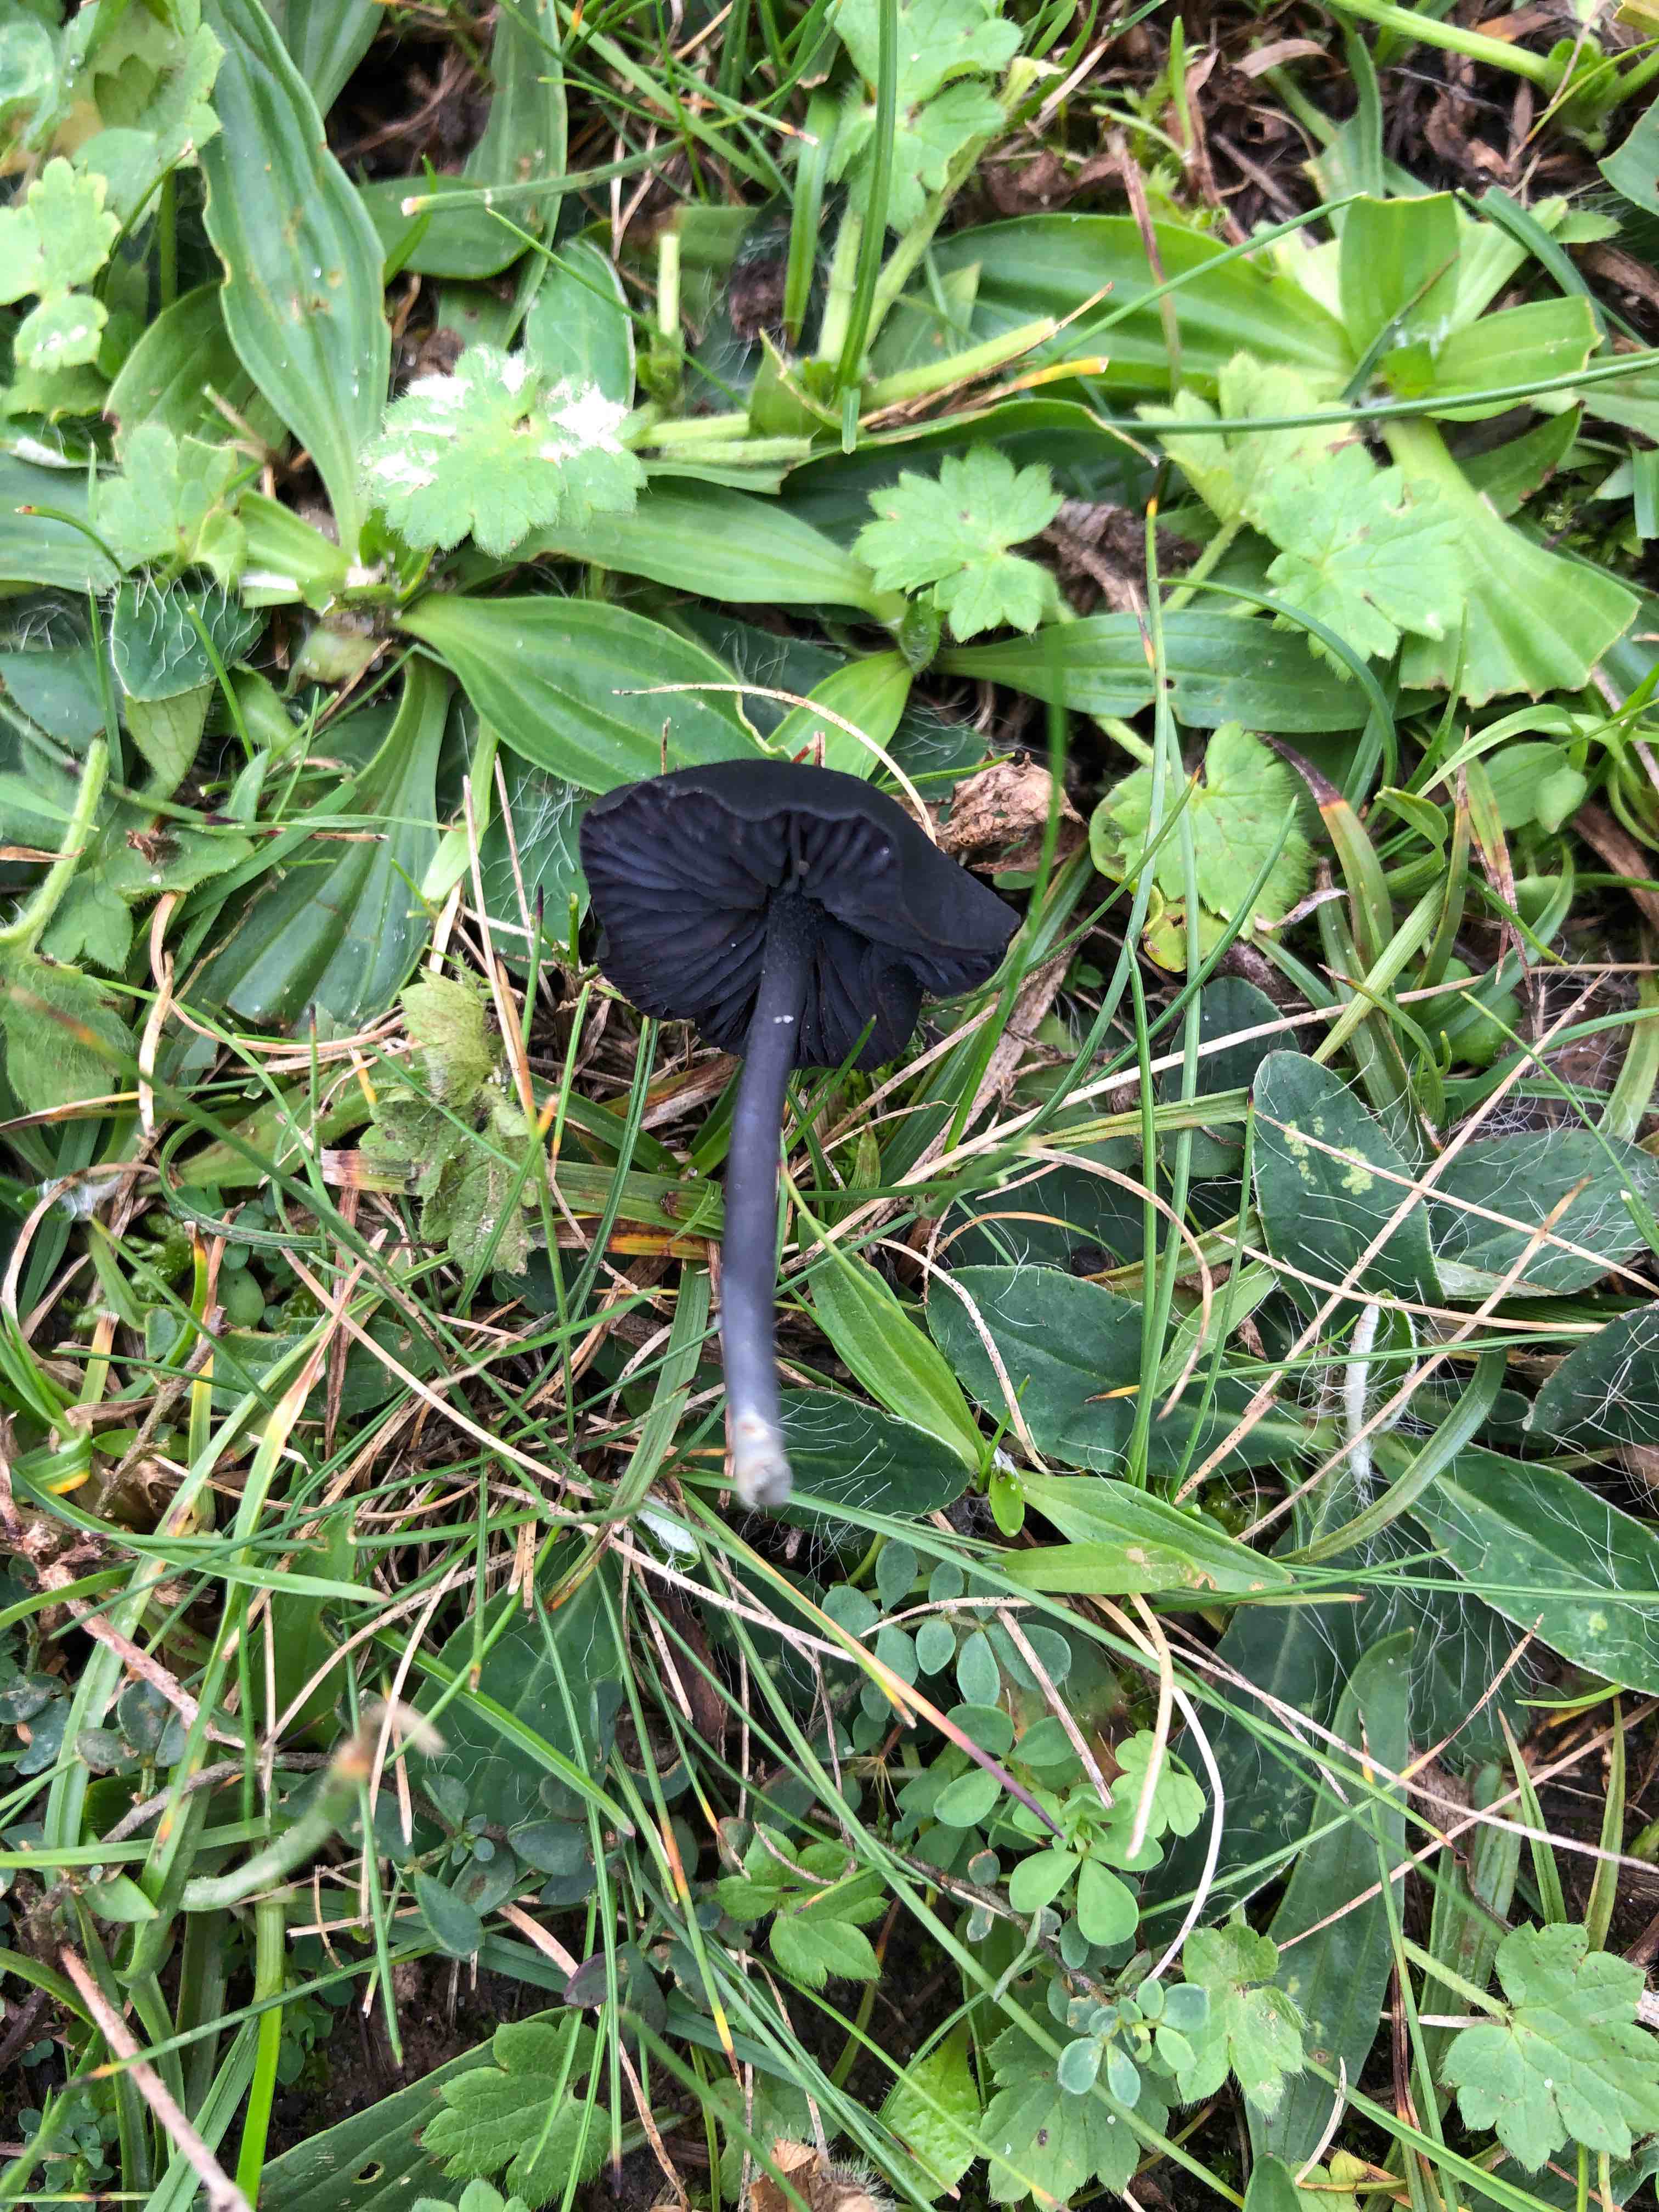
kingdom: Fungi
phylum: Basidiomycota
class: Agaricomycetes
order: Agaricales
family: Entolomataceae
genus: Entoloma
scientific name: Entoloma chalybeum
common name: blåbladet rødblad
